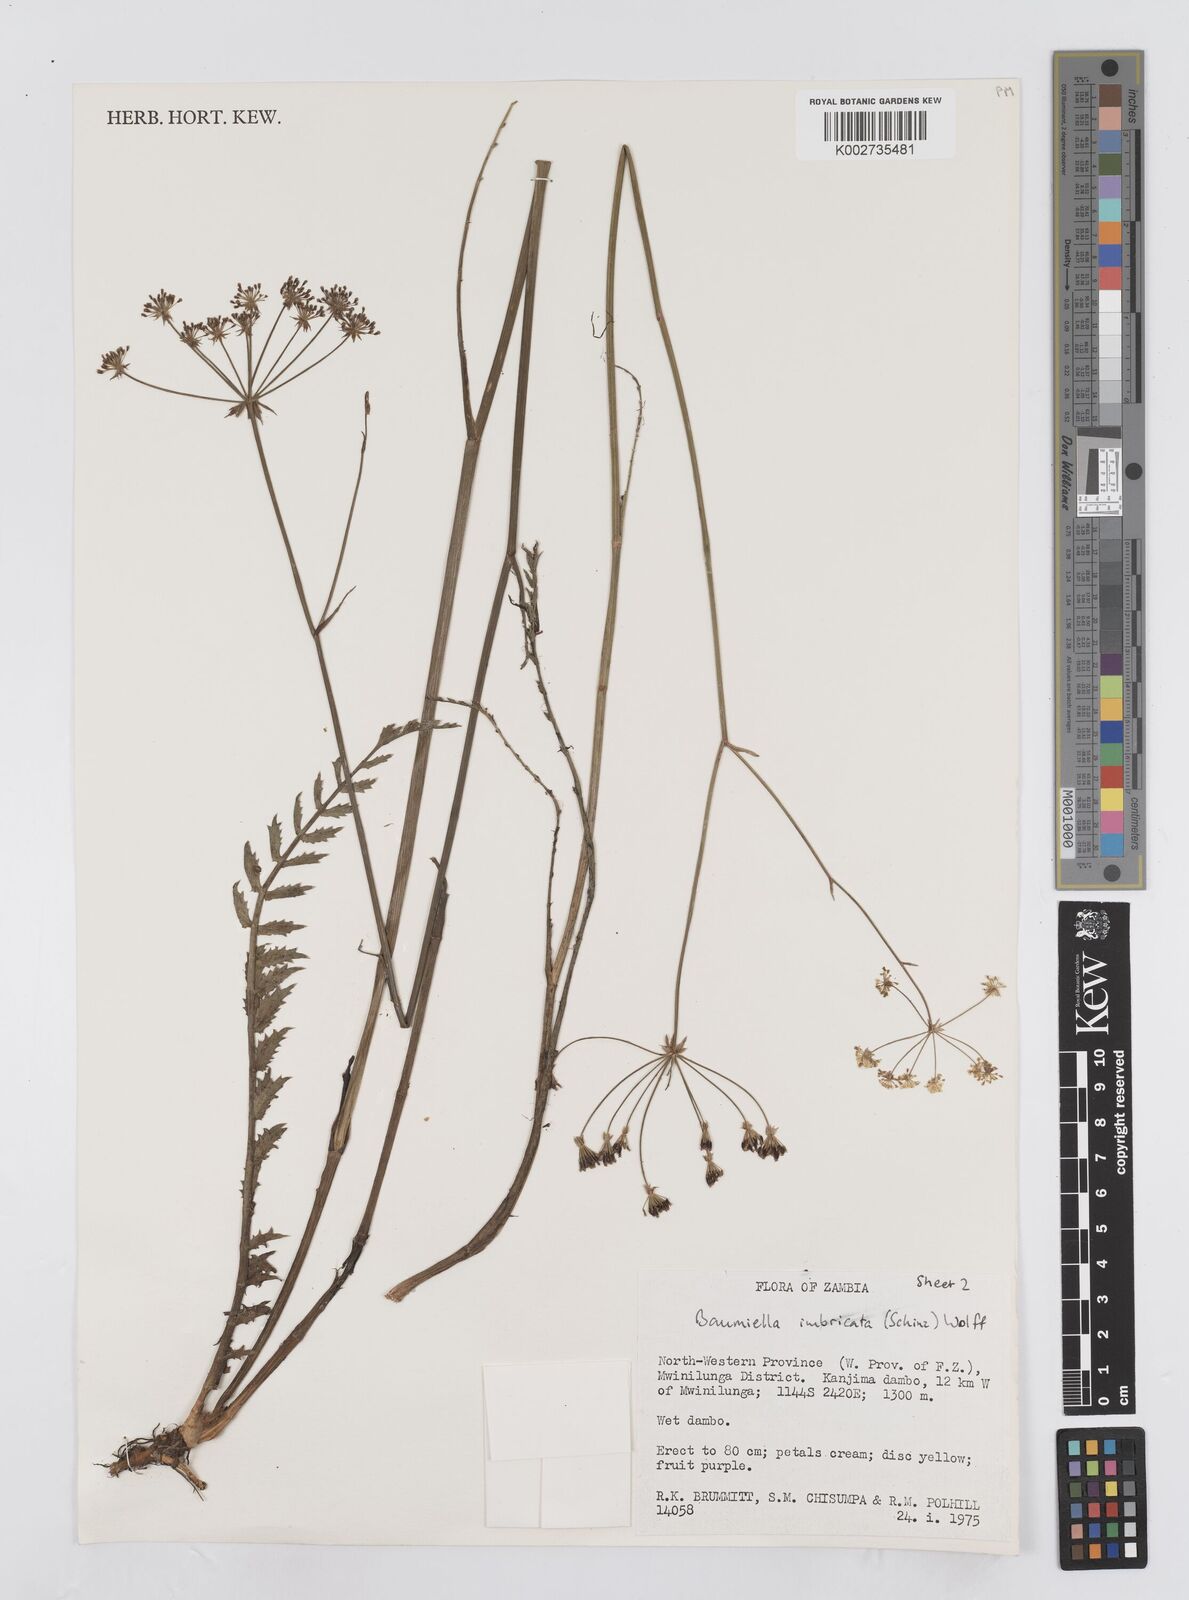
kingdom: Plantae
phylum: Tracheophyta
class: Magnoliopsida
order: Apiales
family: Apiaceae
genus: Berula
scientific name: Berula imbricata
